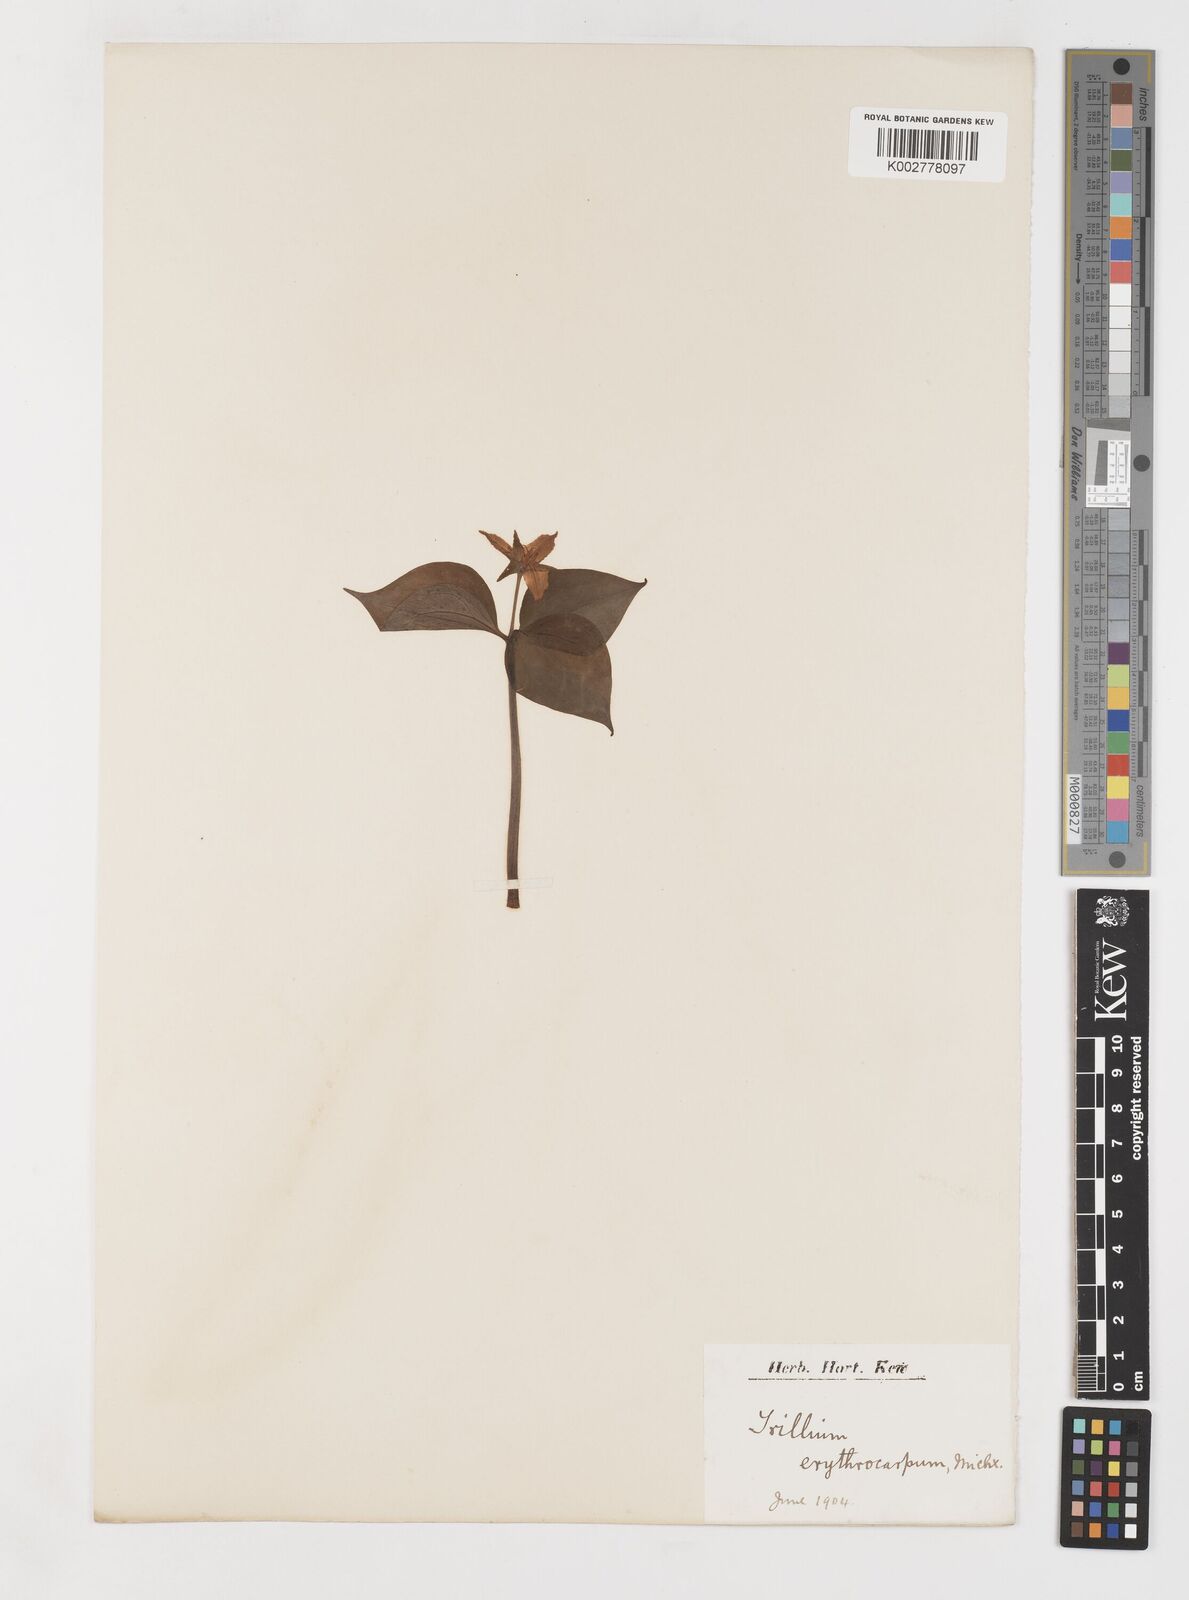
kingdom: Plantae
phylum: Tracheophyta
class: Liliopsida
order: Liliales
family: Melanthiaceae
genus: Trillium
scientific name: Trillium undulatum
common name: Paint trillium
